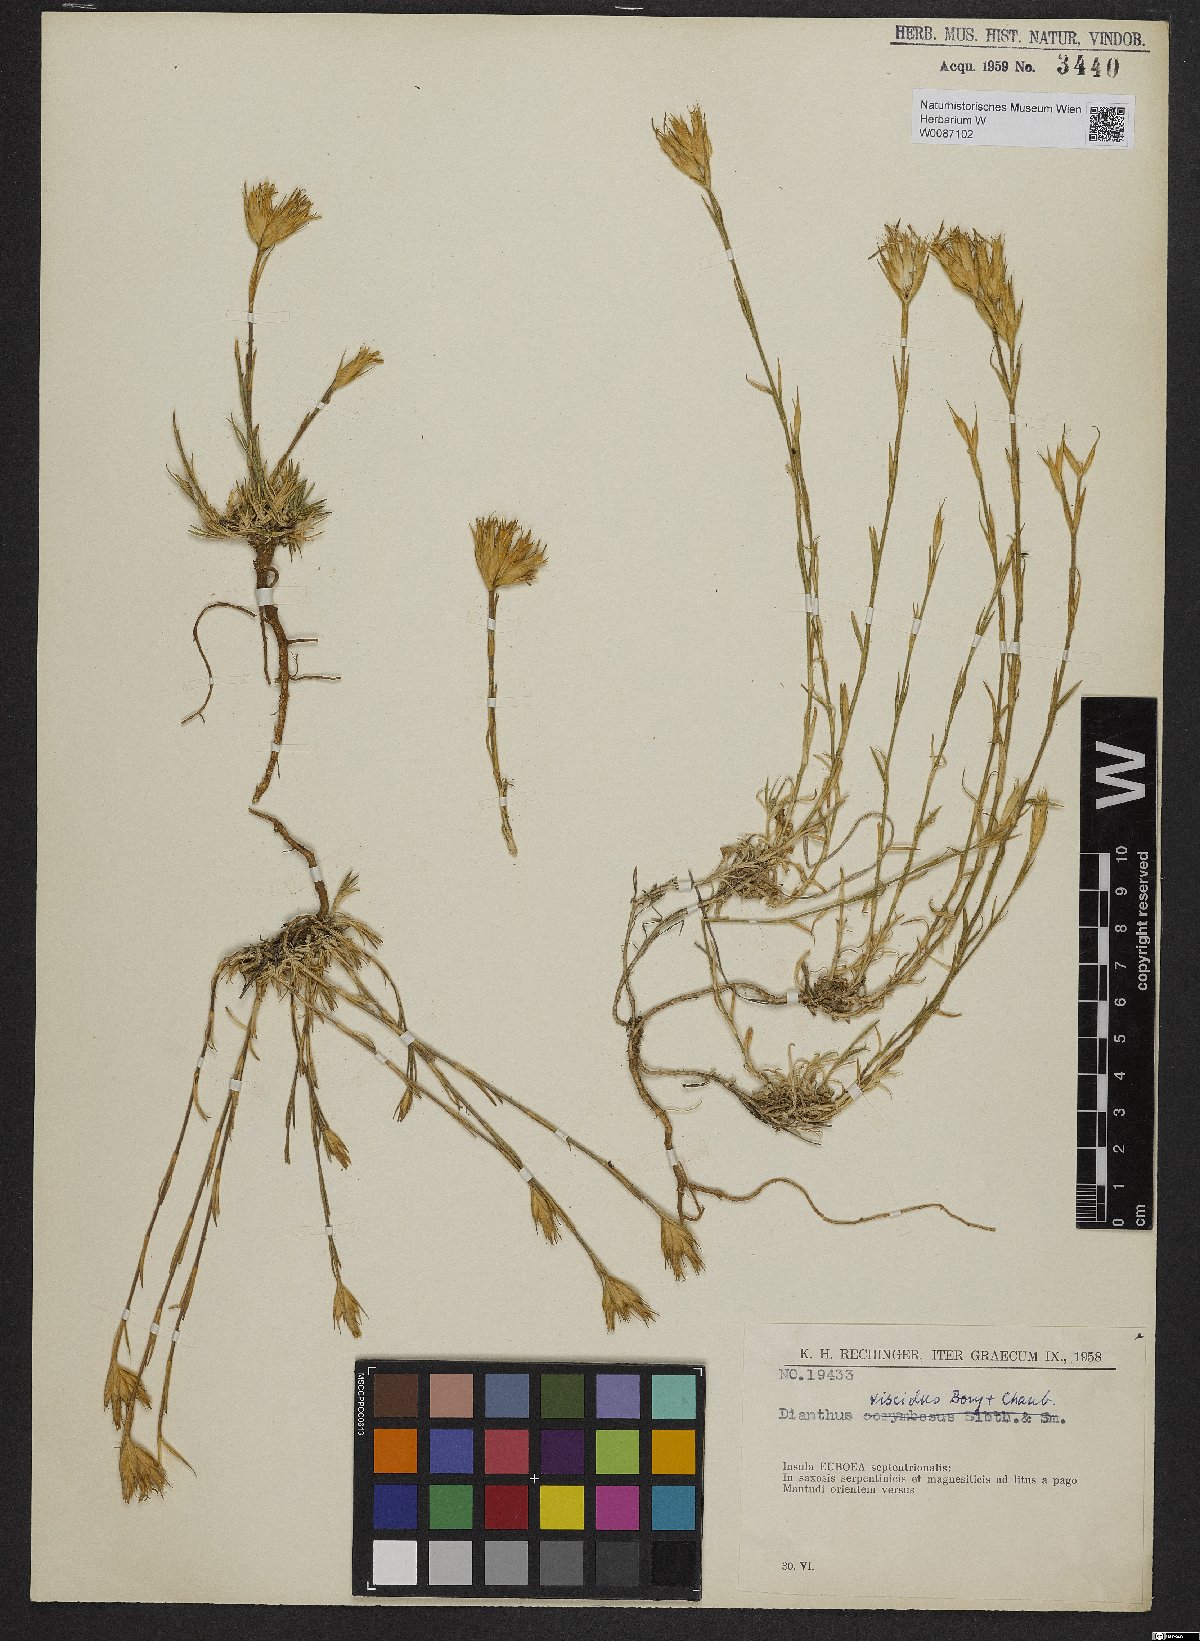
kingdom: Plantae
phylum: Tracheophyta
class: Magnoliopsida
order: Caryophyllales
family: Caryophyllaceae
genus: Dianthus
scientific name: Dianthus viscidus
